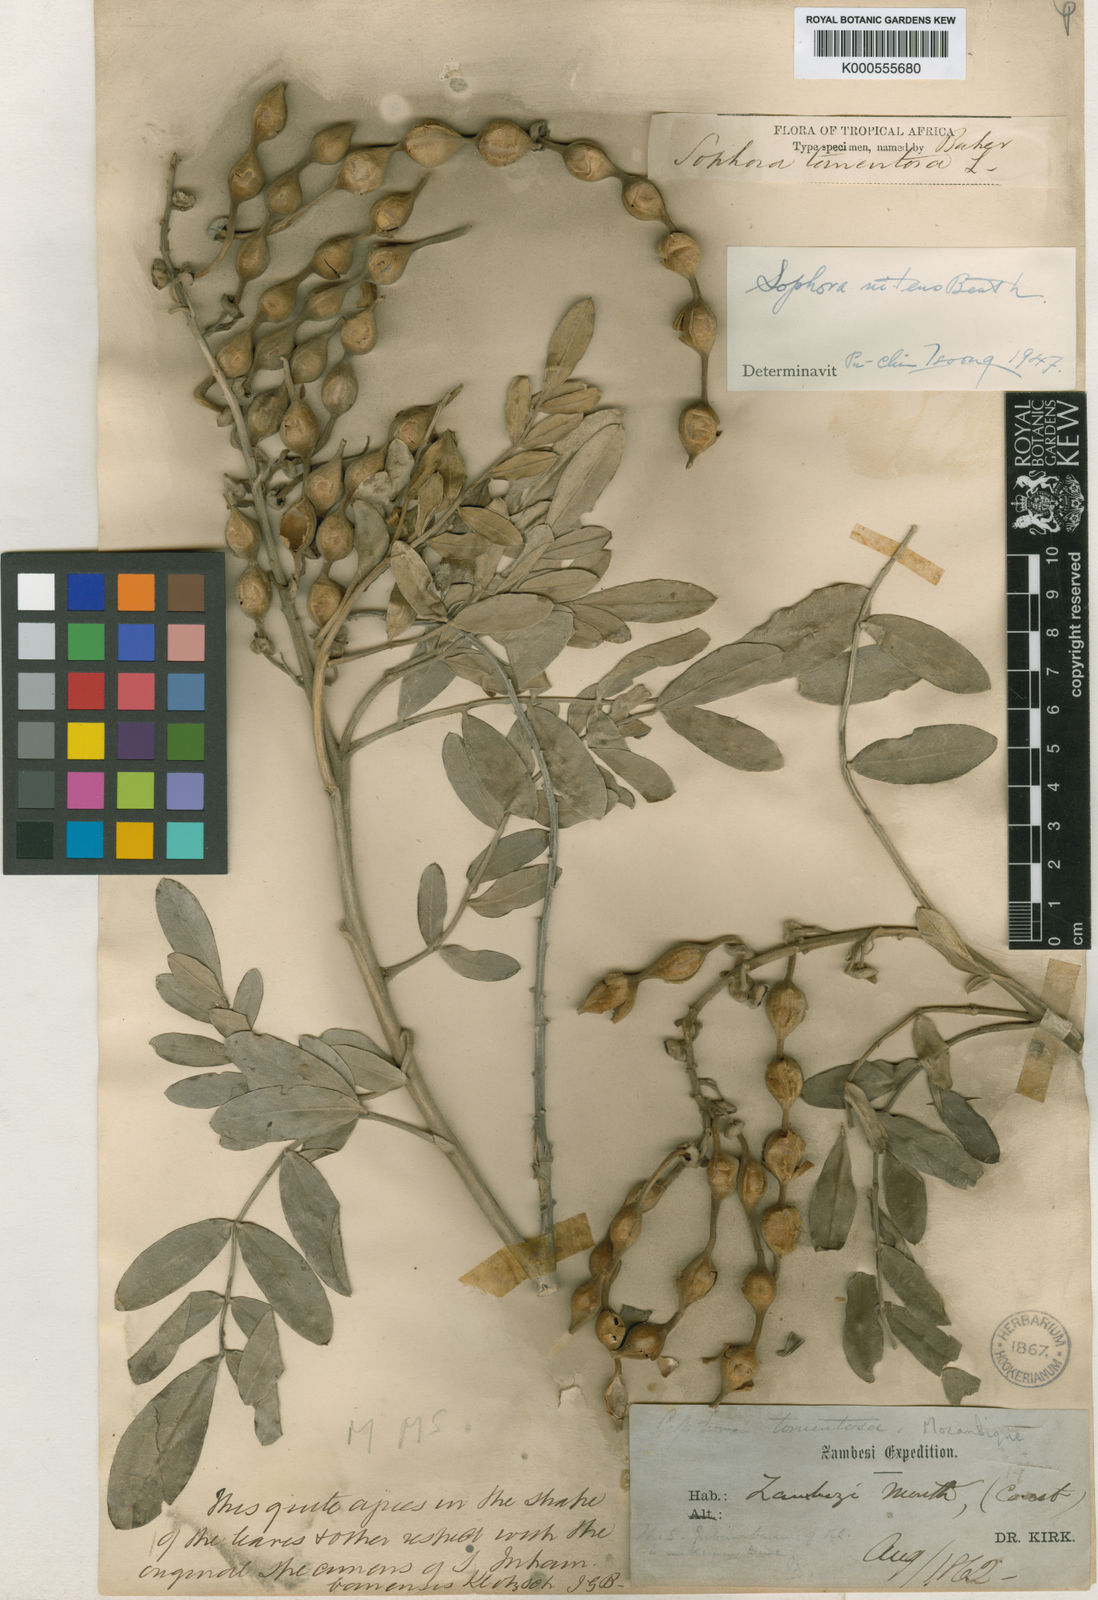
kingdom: Plantae
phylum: Tracheophyta
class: Magnoliopsida
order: Fabales
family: Fabaceae
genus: Sophora
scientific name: Sophora inhambanensis
